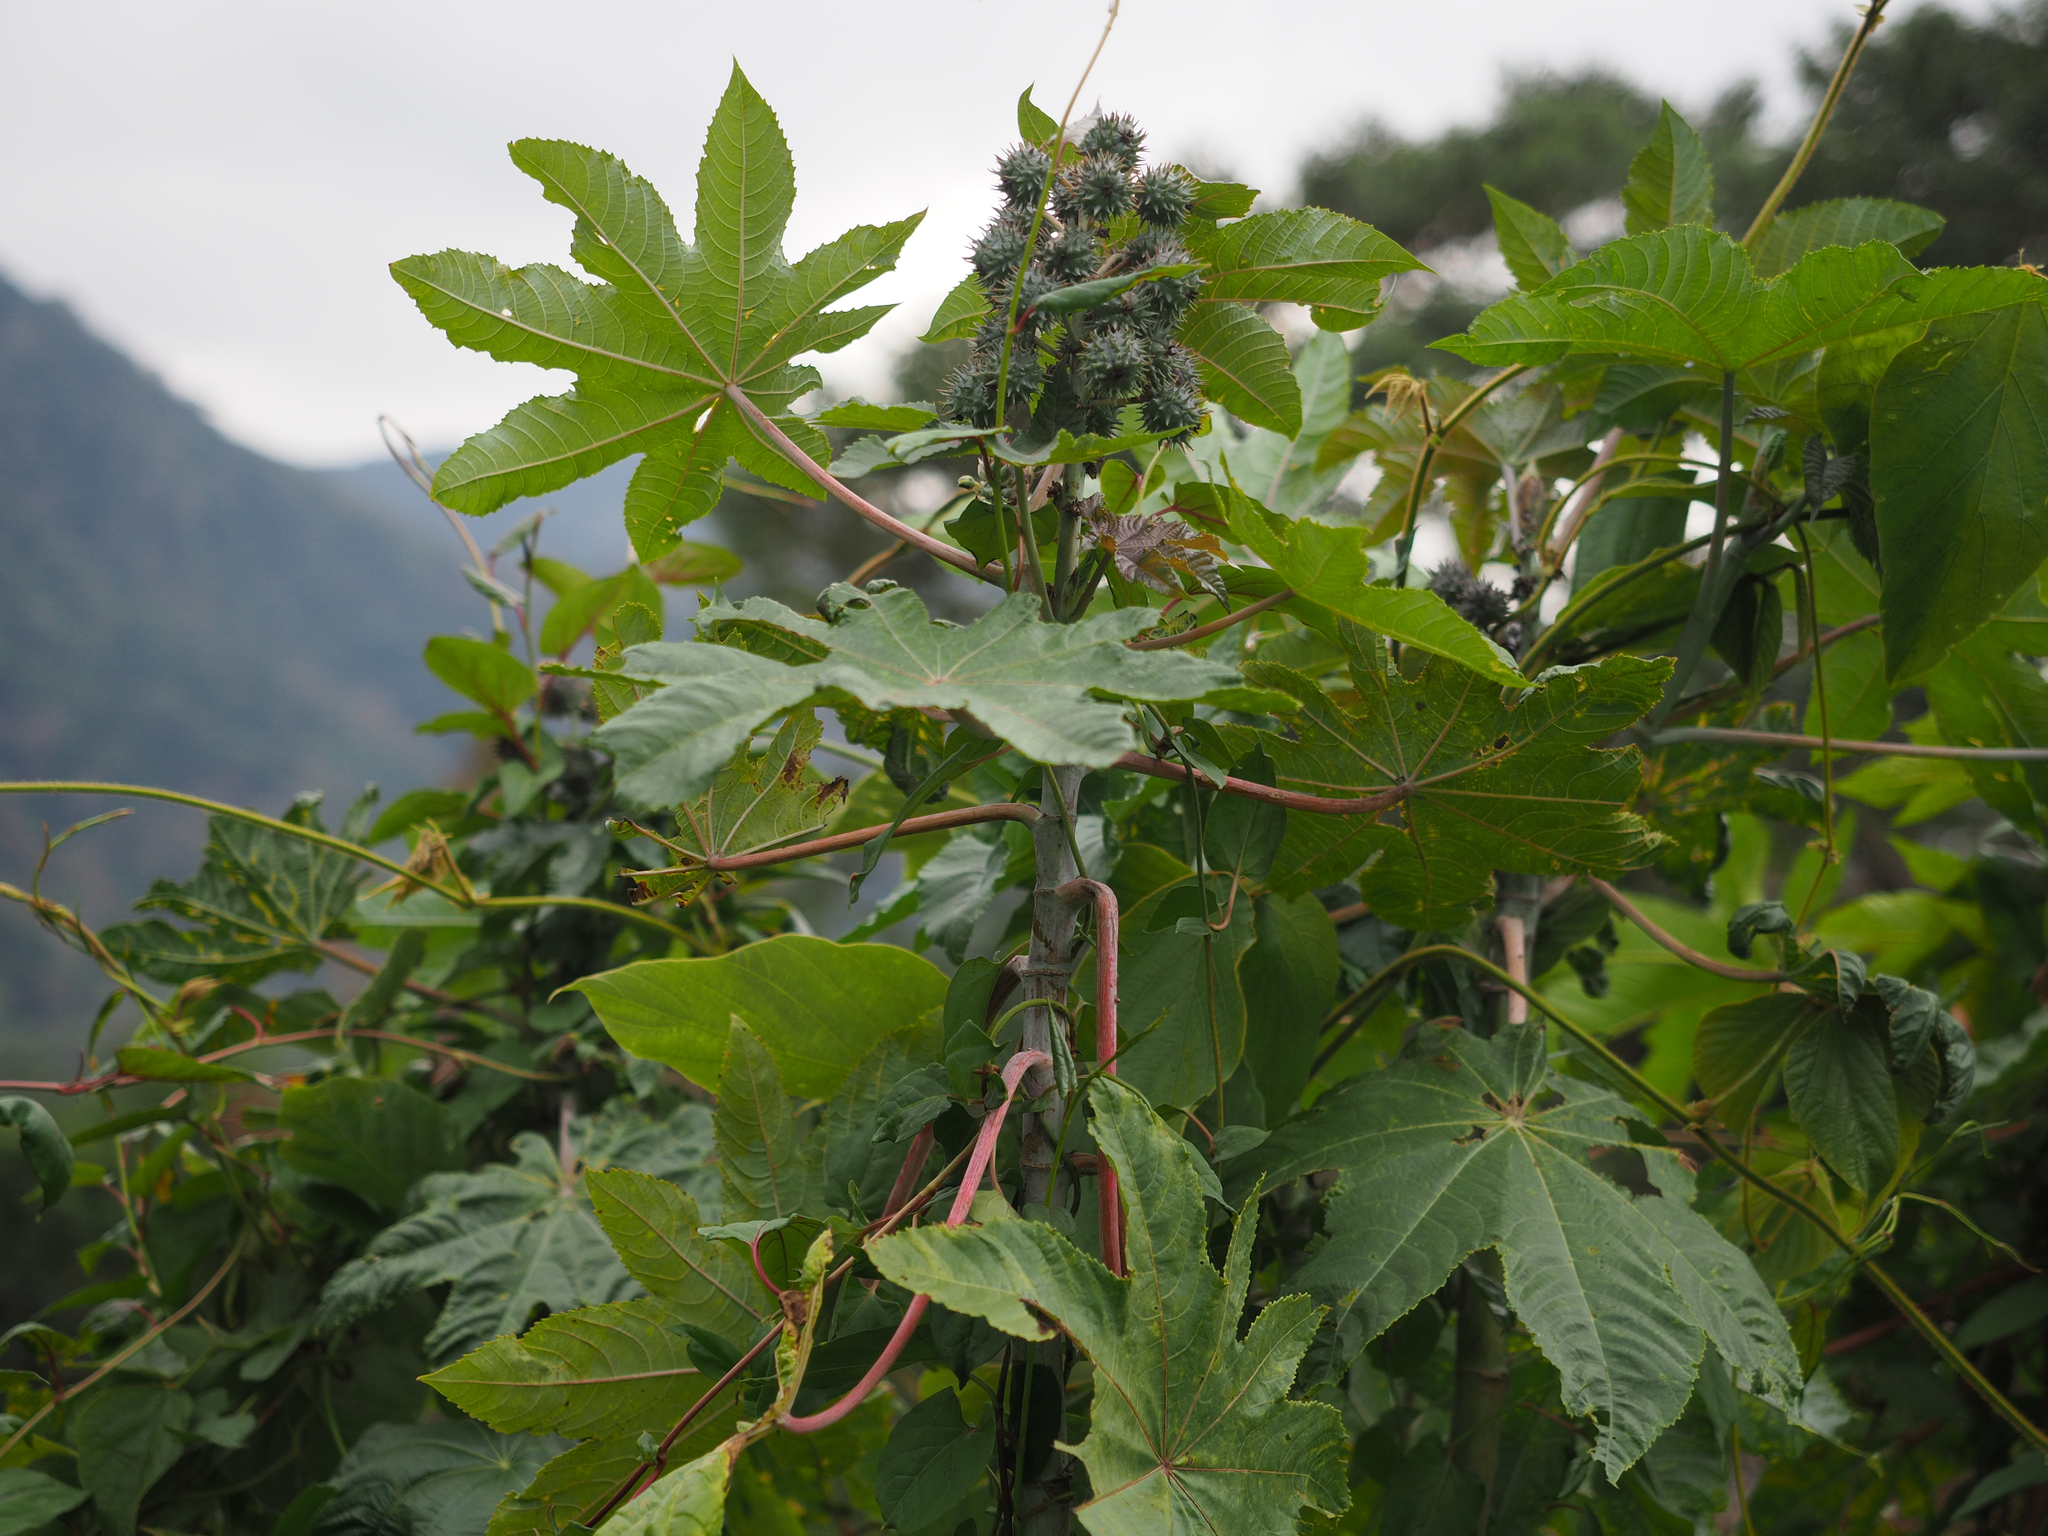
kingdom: Plantae
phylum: Tracheophyta
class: Magnoliopsida
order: Malpighiales
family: Euphorbiaceae
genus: Ricinus
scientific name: Ricinus communis
